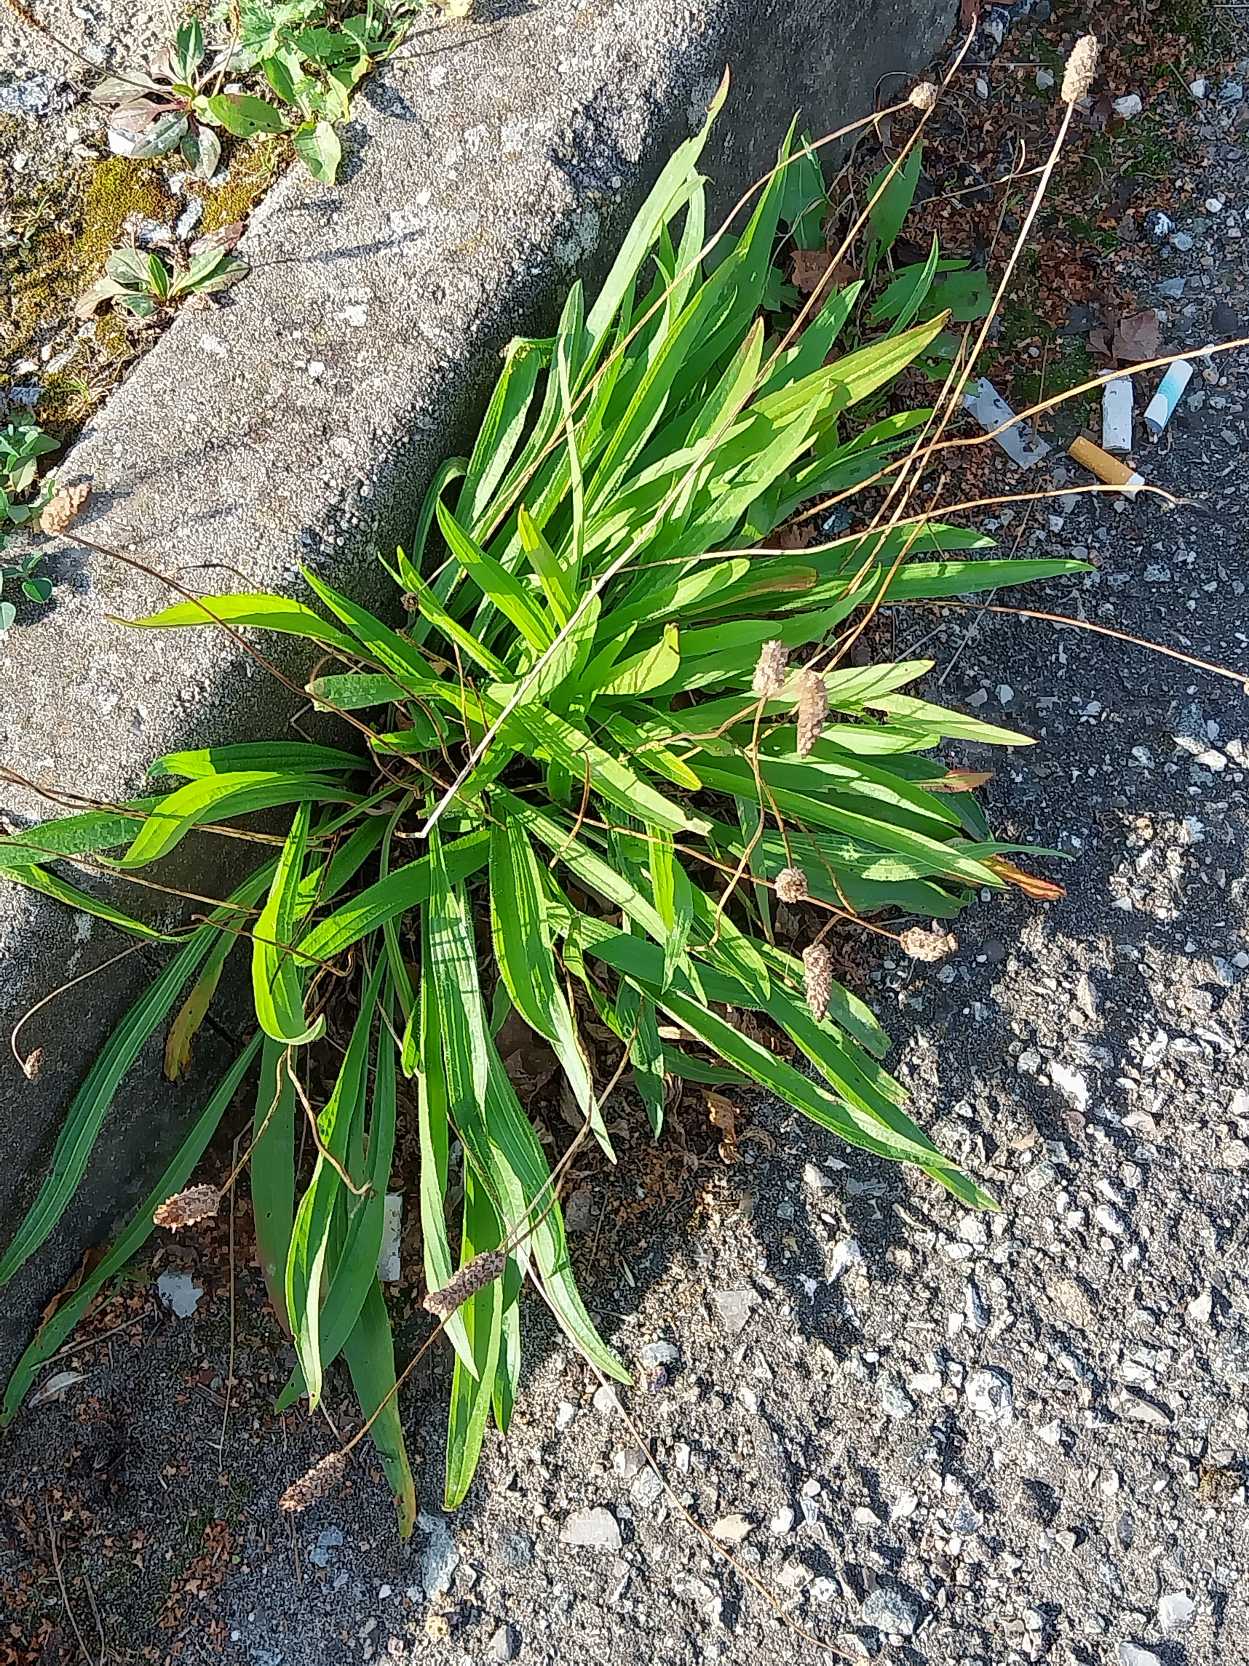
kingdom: Plantae
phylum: Tracheophyta
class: Magnoliopsida
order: Lamiales
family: Plantaginaceae
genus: Plantago
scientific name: Plantago lanceolata
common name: Lancet-vejbred
